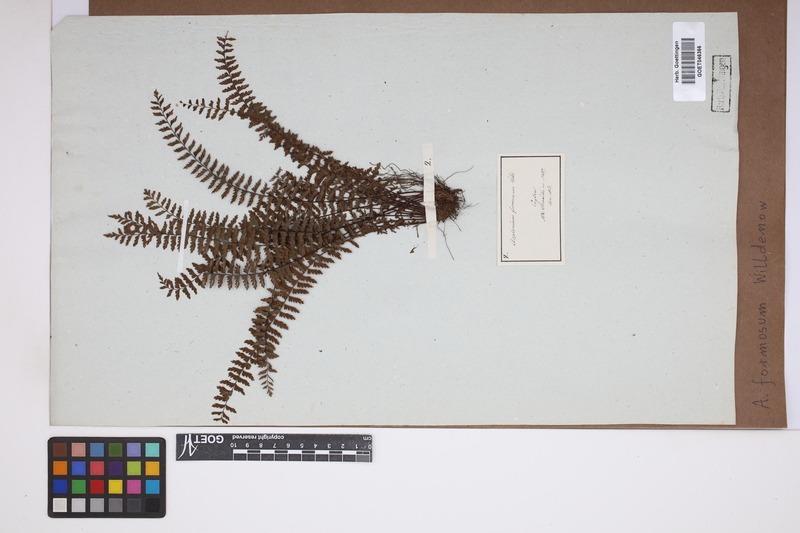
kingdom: Plantae
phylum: Tracheophyta
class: Polypodiopsida
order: Polypodiales
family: Aspleniaceae
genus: Asplenium
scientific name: Asplenium formosum
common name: Showy spleenwort
